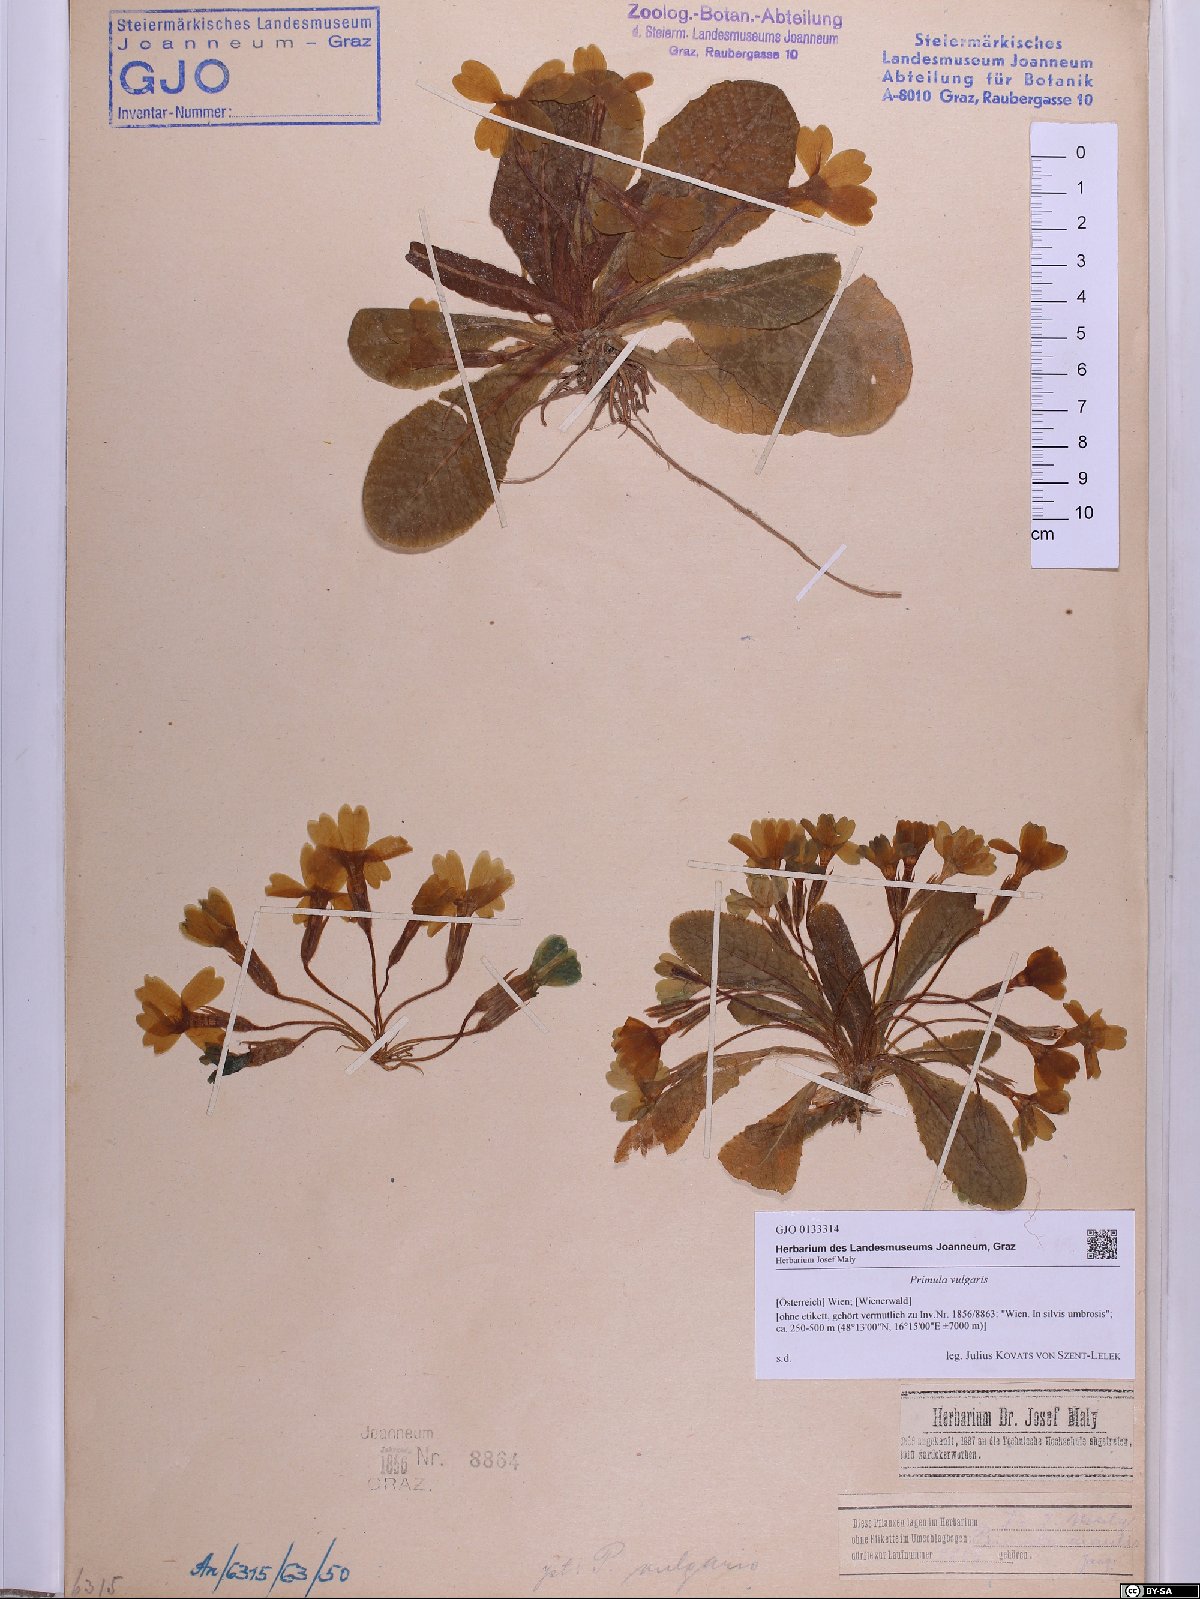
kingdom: Plantae
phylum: Tracheophyta
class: Magnoliopsida
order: Ericales
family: Primulaceae
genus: Primula
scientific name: Primula vulgaris
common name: Primrose
